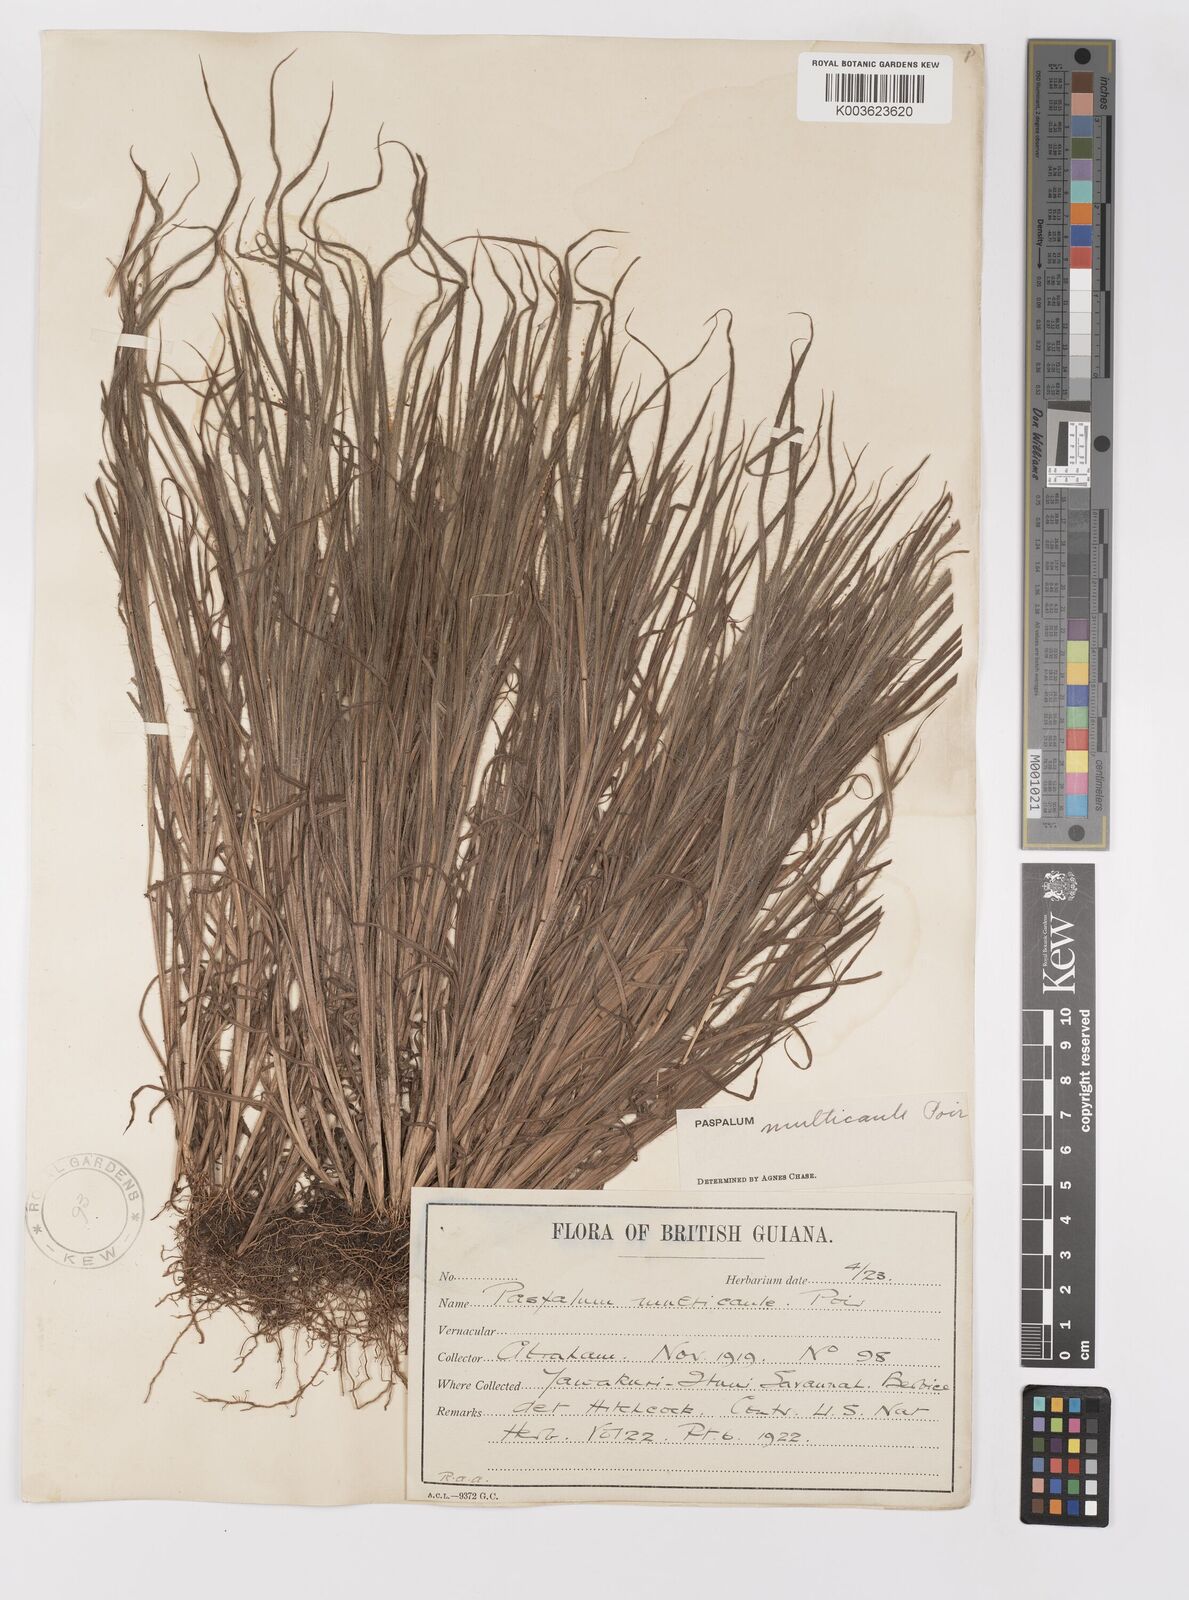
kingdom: Plantae
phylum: Tracheophyta
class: Liliopsida
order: Poales
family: Poaceae
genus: Paspalum
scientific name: Paspalum multicaule
